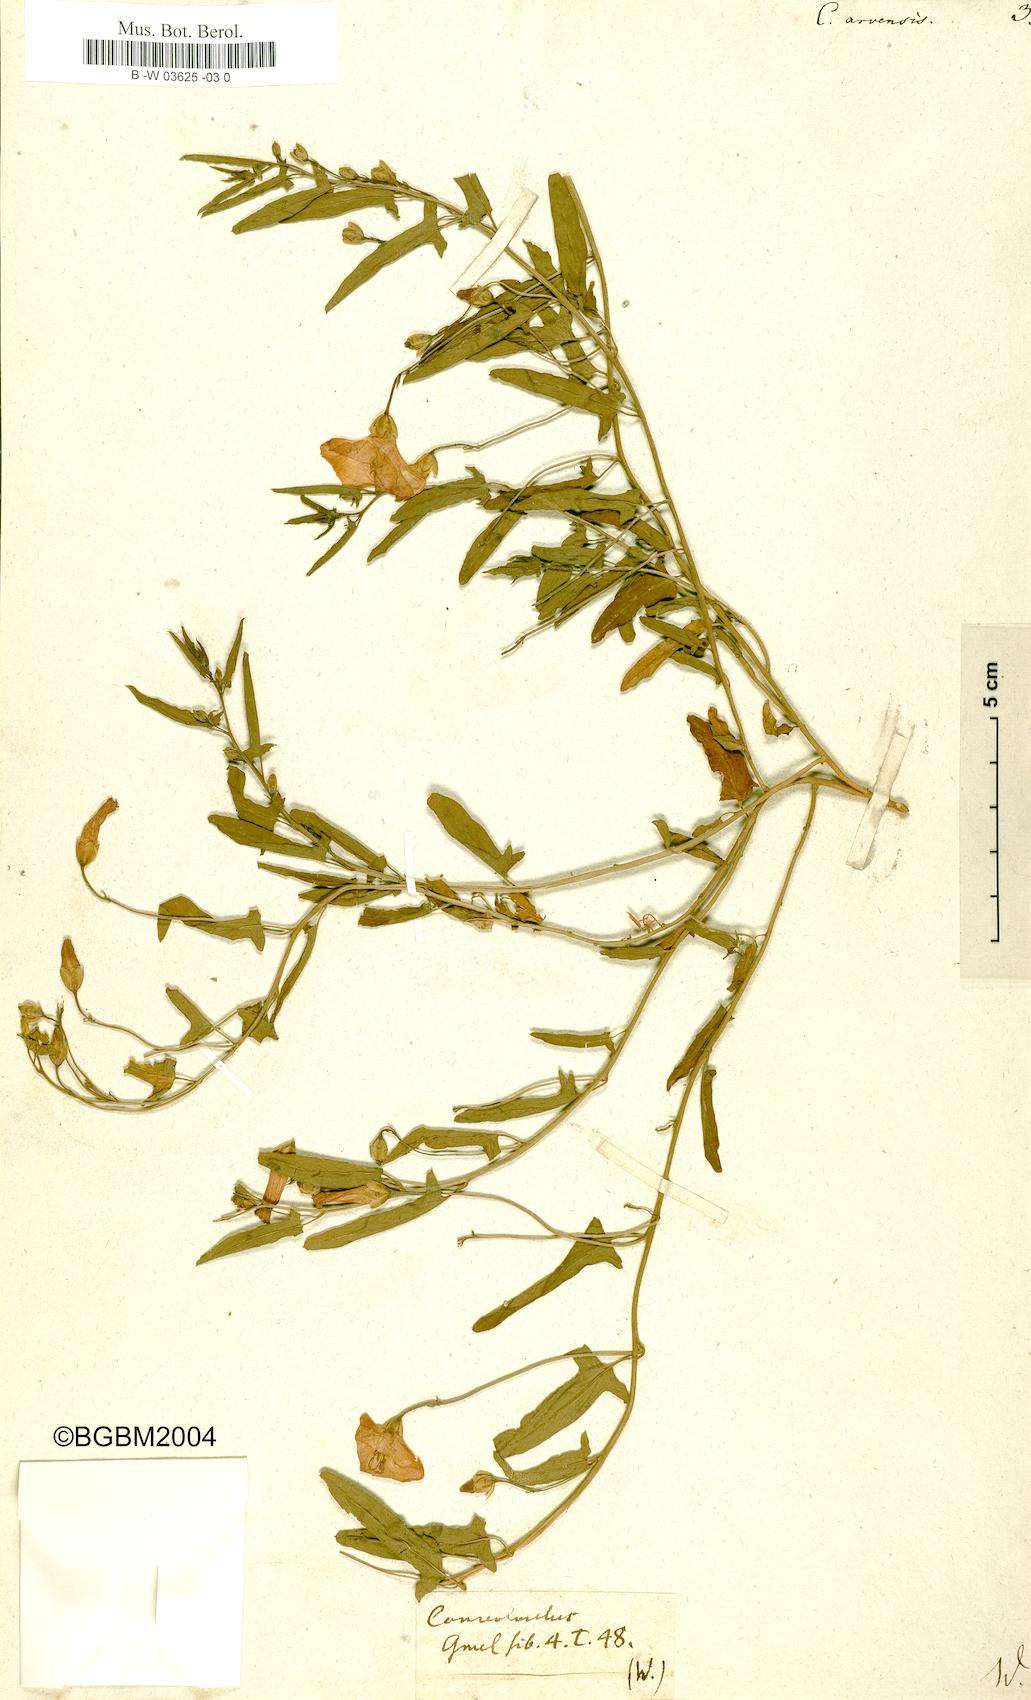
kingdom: Plantae
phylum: Tracheophyta
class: Magnoliopsida
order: Solanales
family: Convolvulaceae
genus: Convolvulus
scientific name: Convolvulus arvensis
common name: Field bindweed
